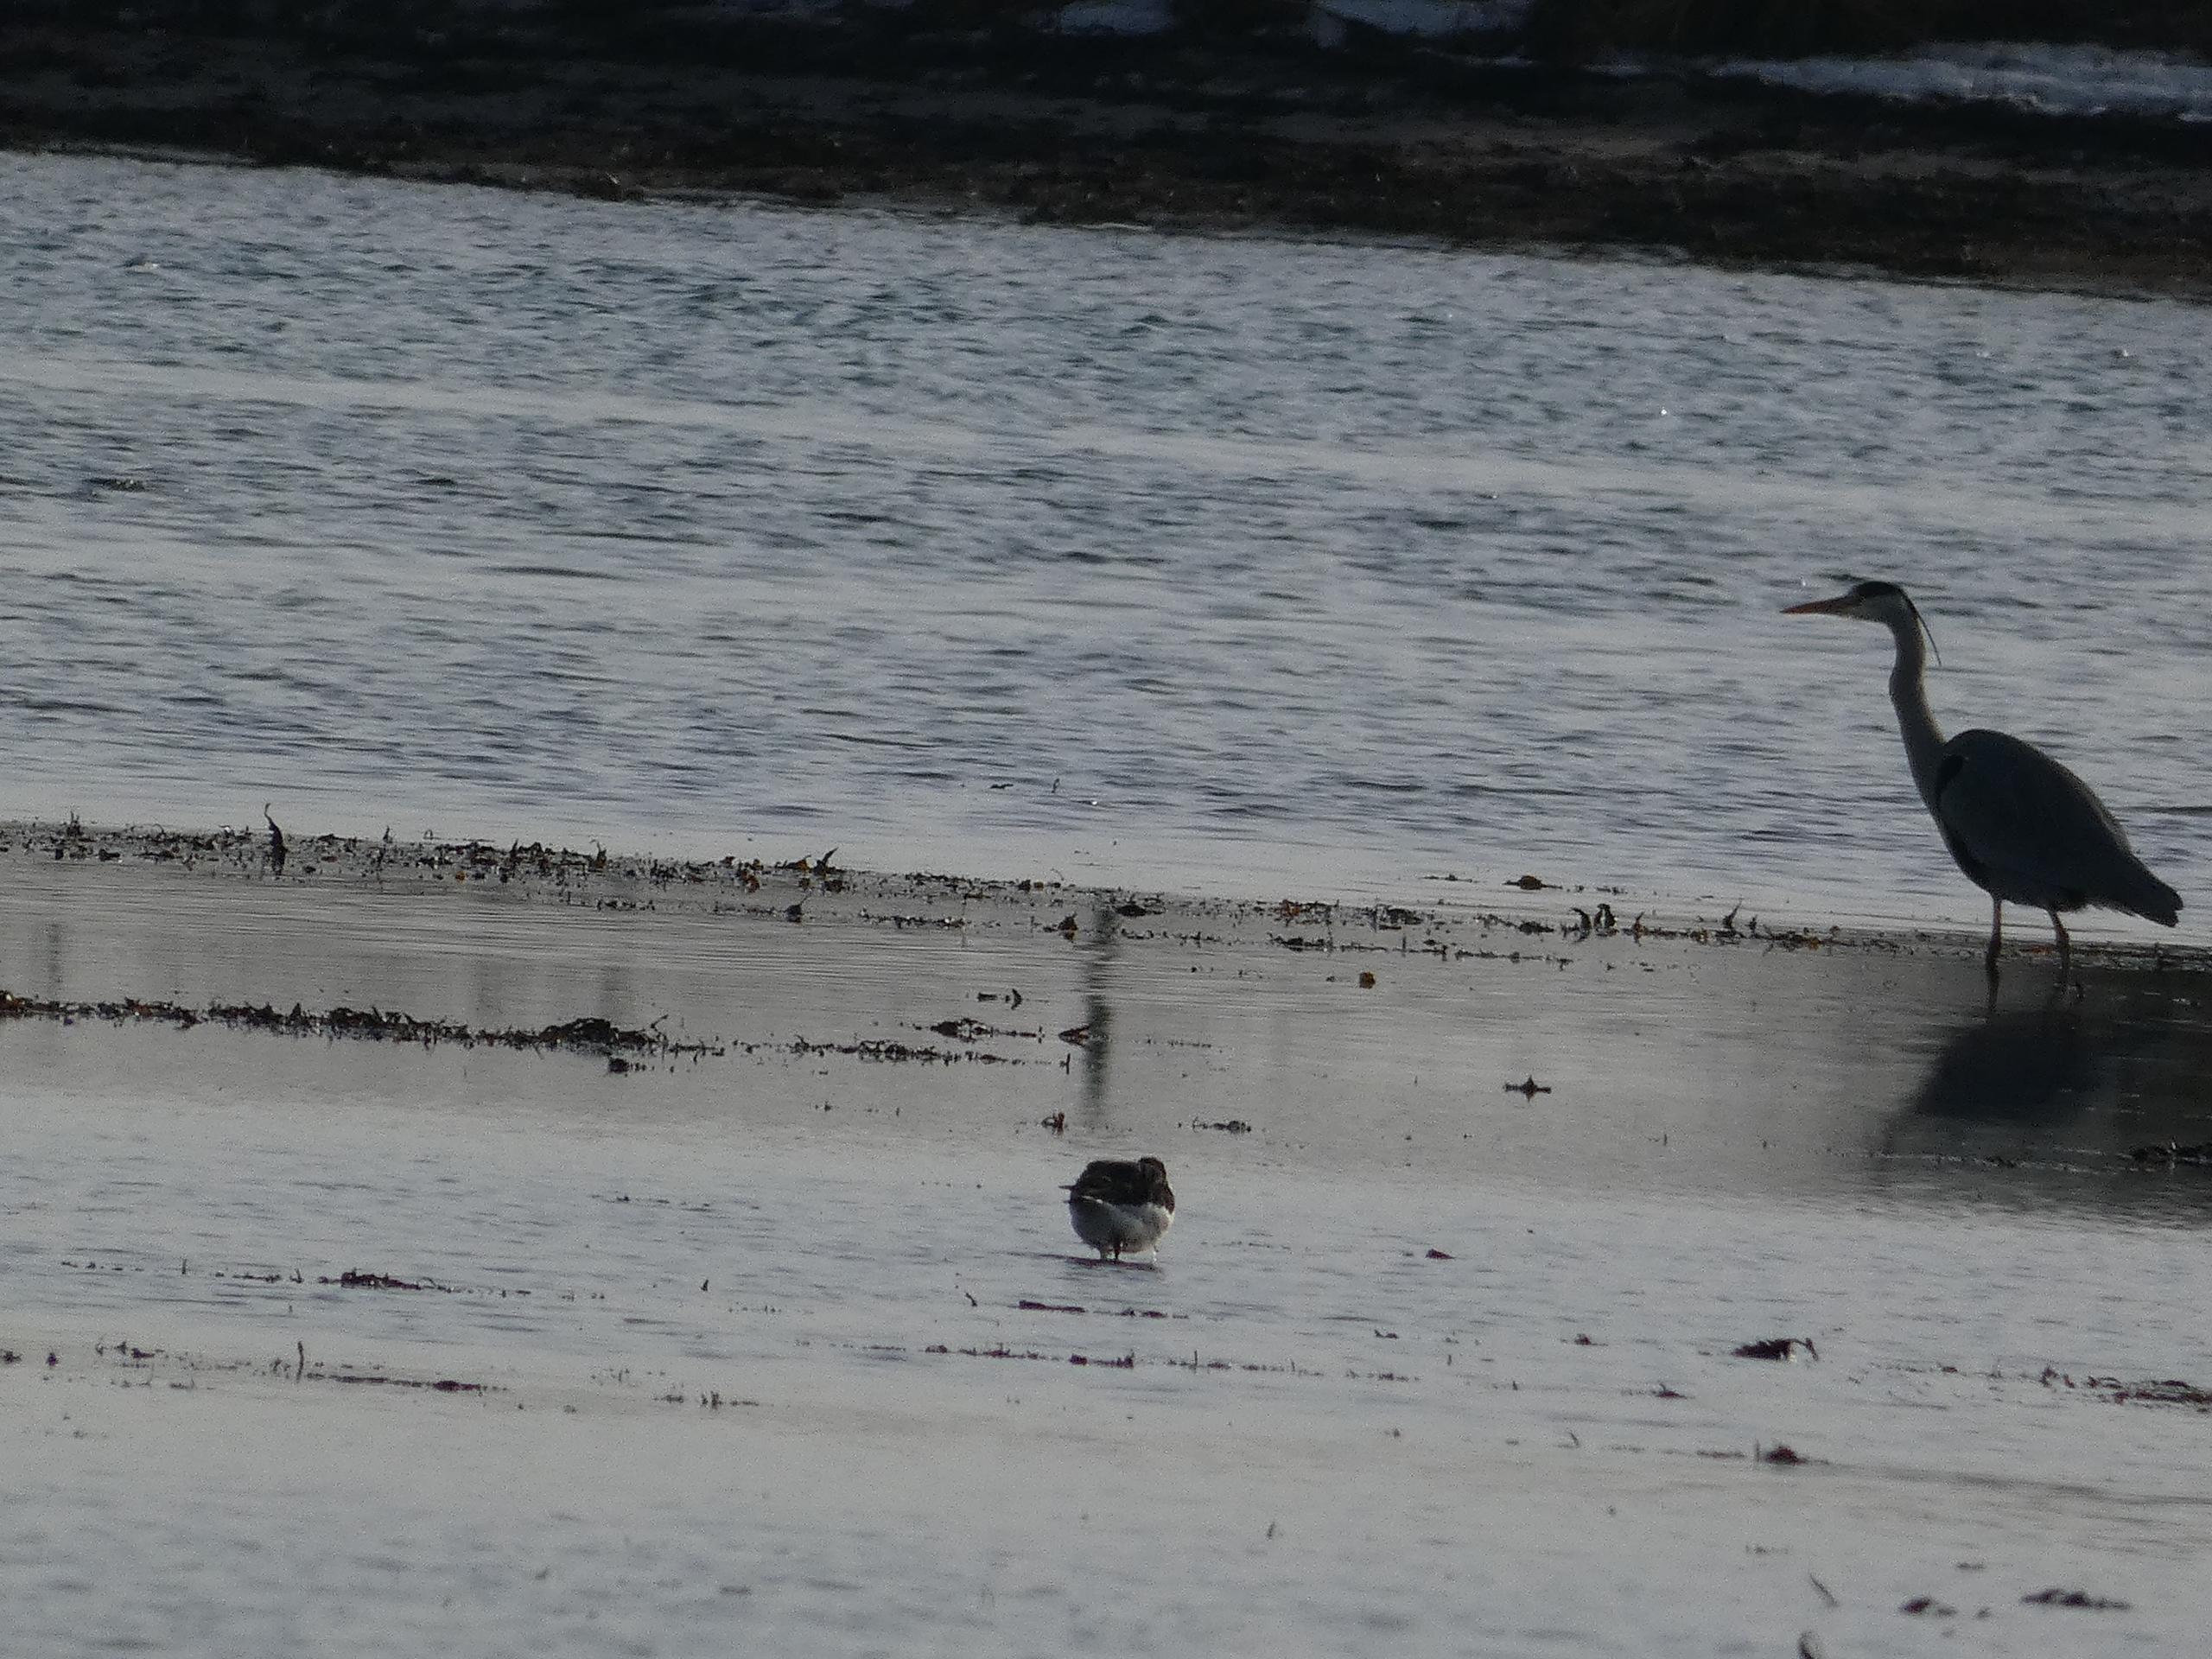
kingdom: Animalia
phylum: Chordata
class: Aves
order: Pelecaniformes
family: Ardeidae
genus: Ardea
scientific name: Ardea cinerea
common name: Fiskehejre
